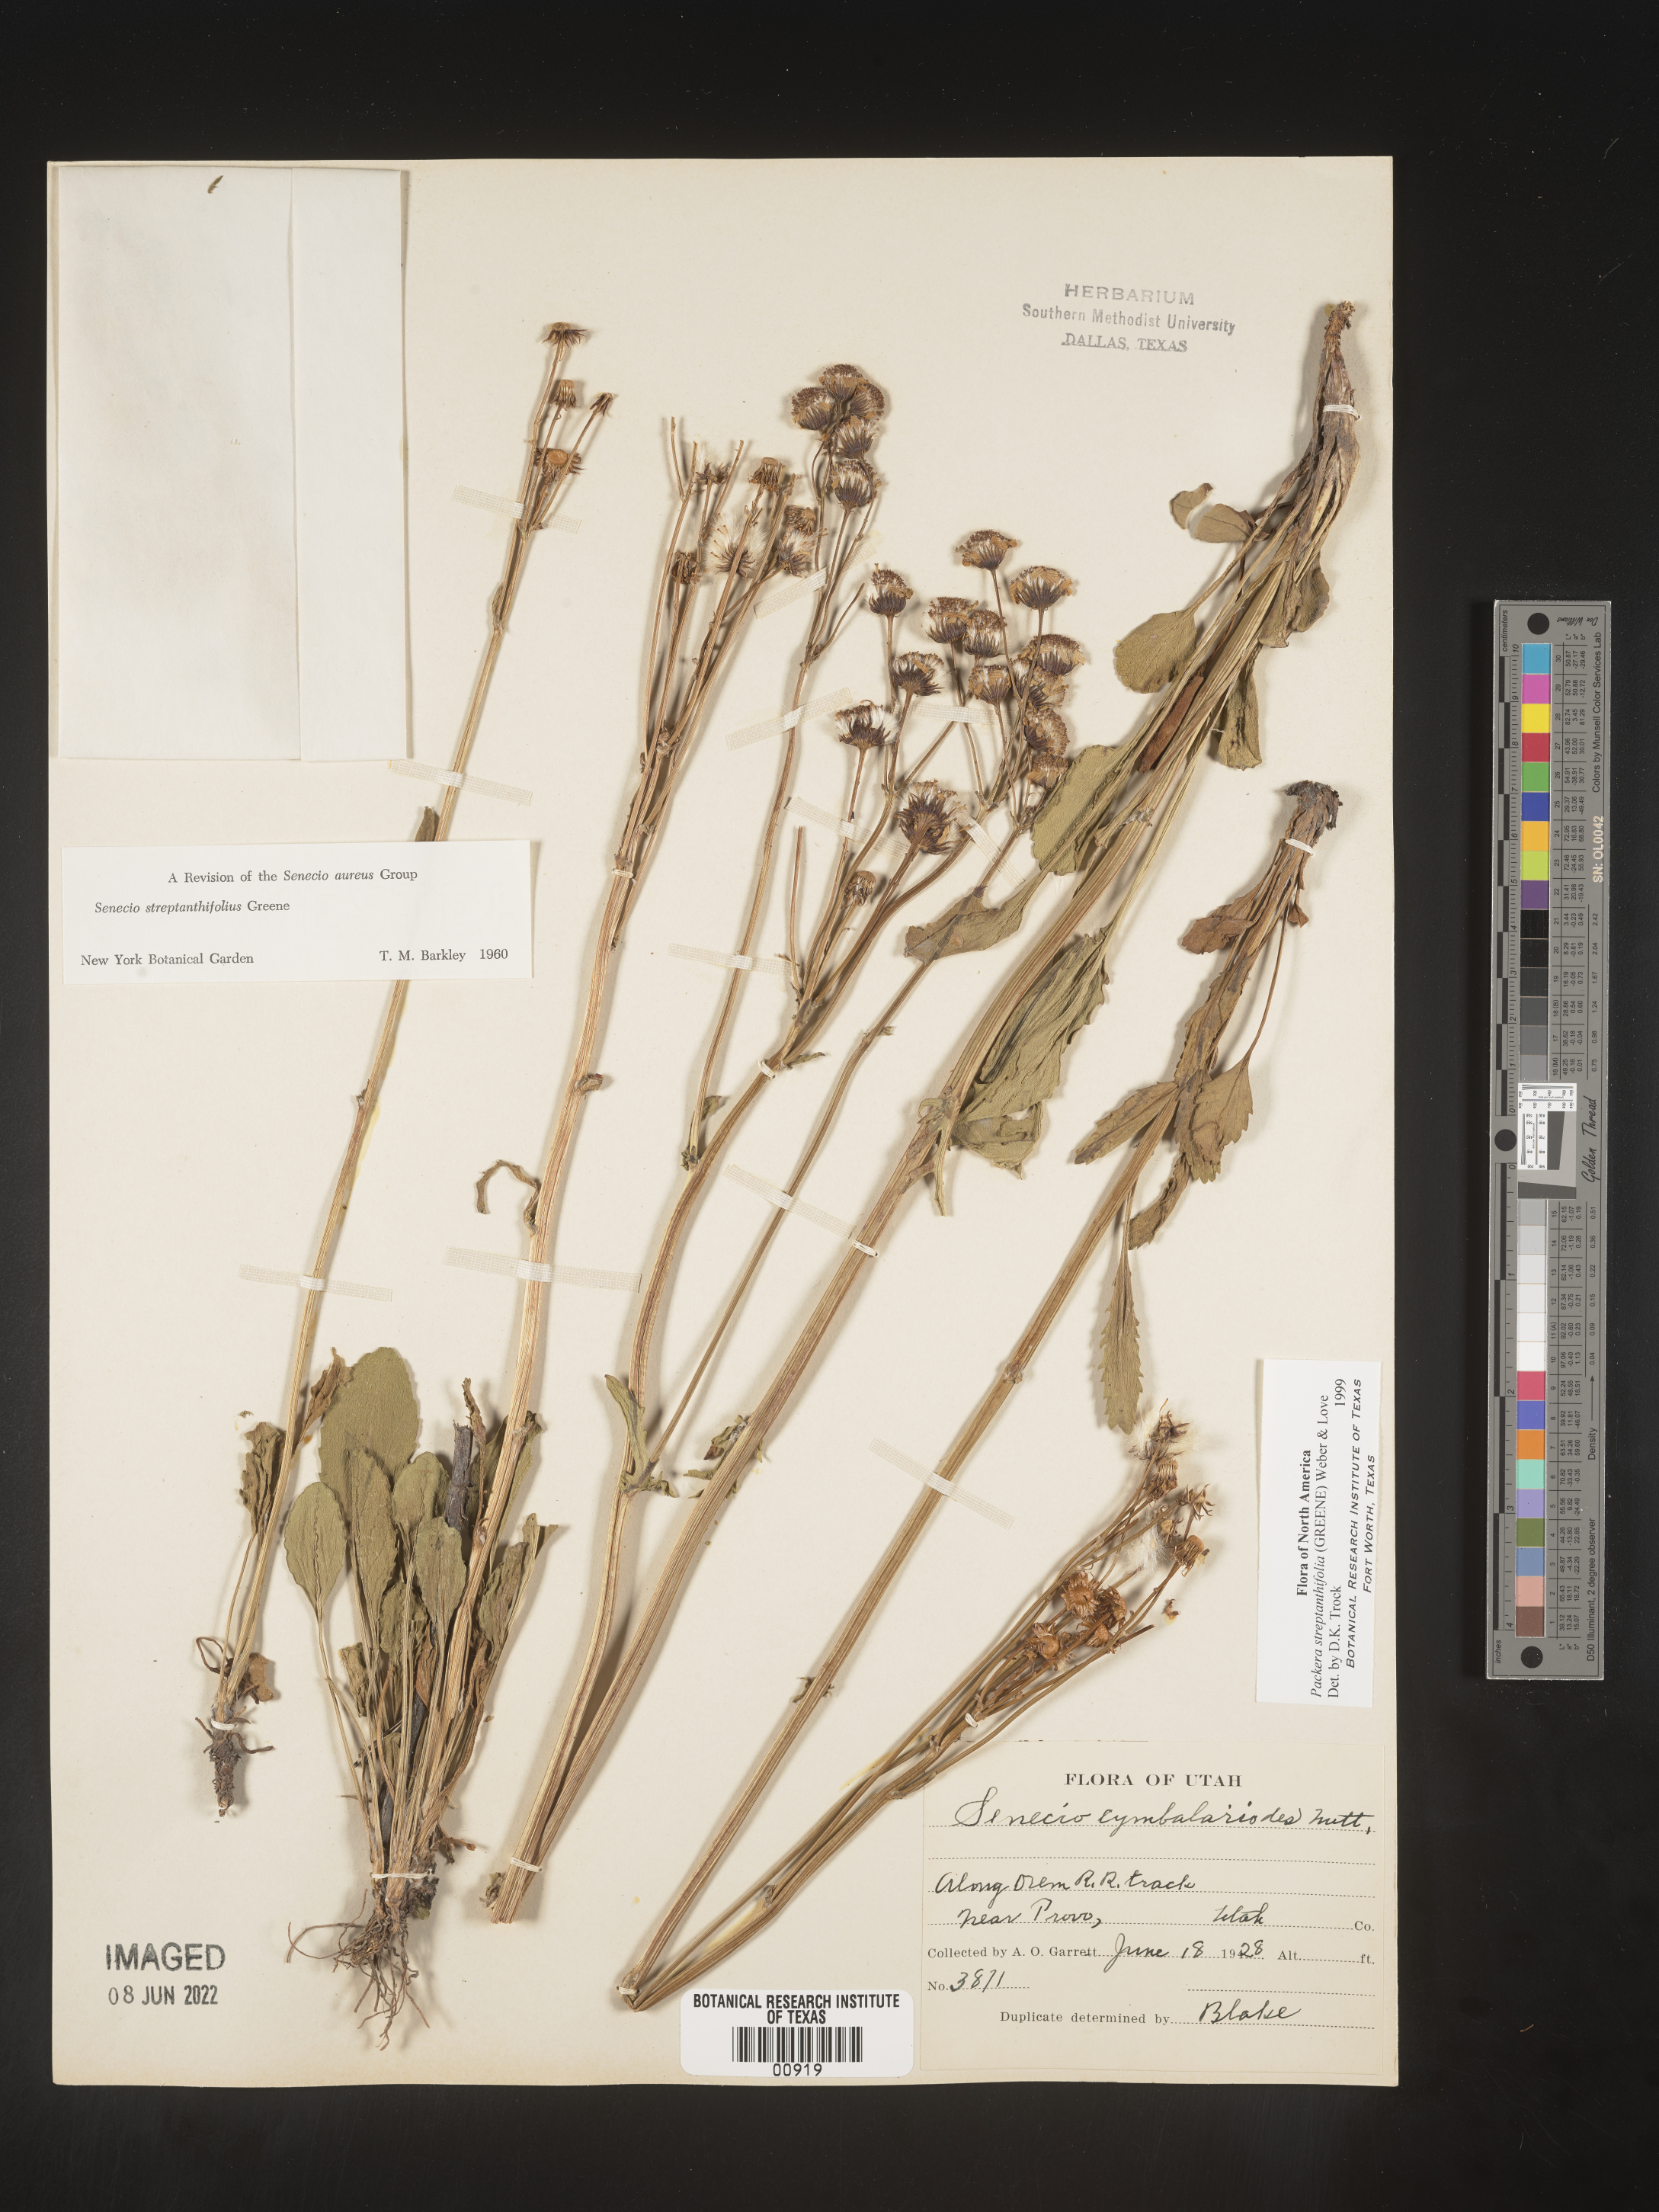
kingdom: Plantae
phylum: Tracheophyta
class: Magnoliopsida
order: Asterales
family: Asteraceae
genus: Packera
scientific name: Packera streptanthifolia
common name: Rocky mountain butterweed
